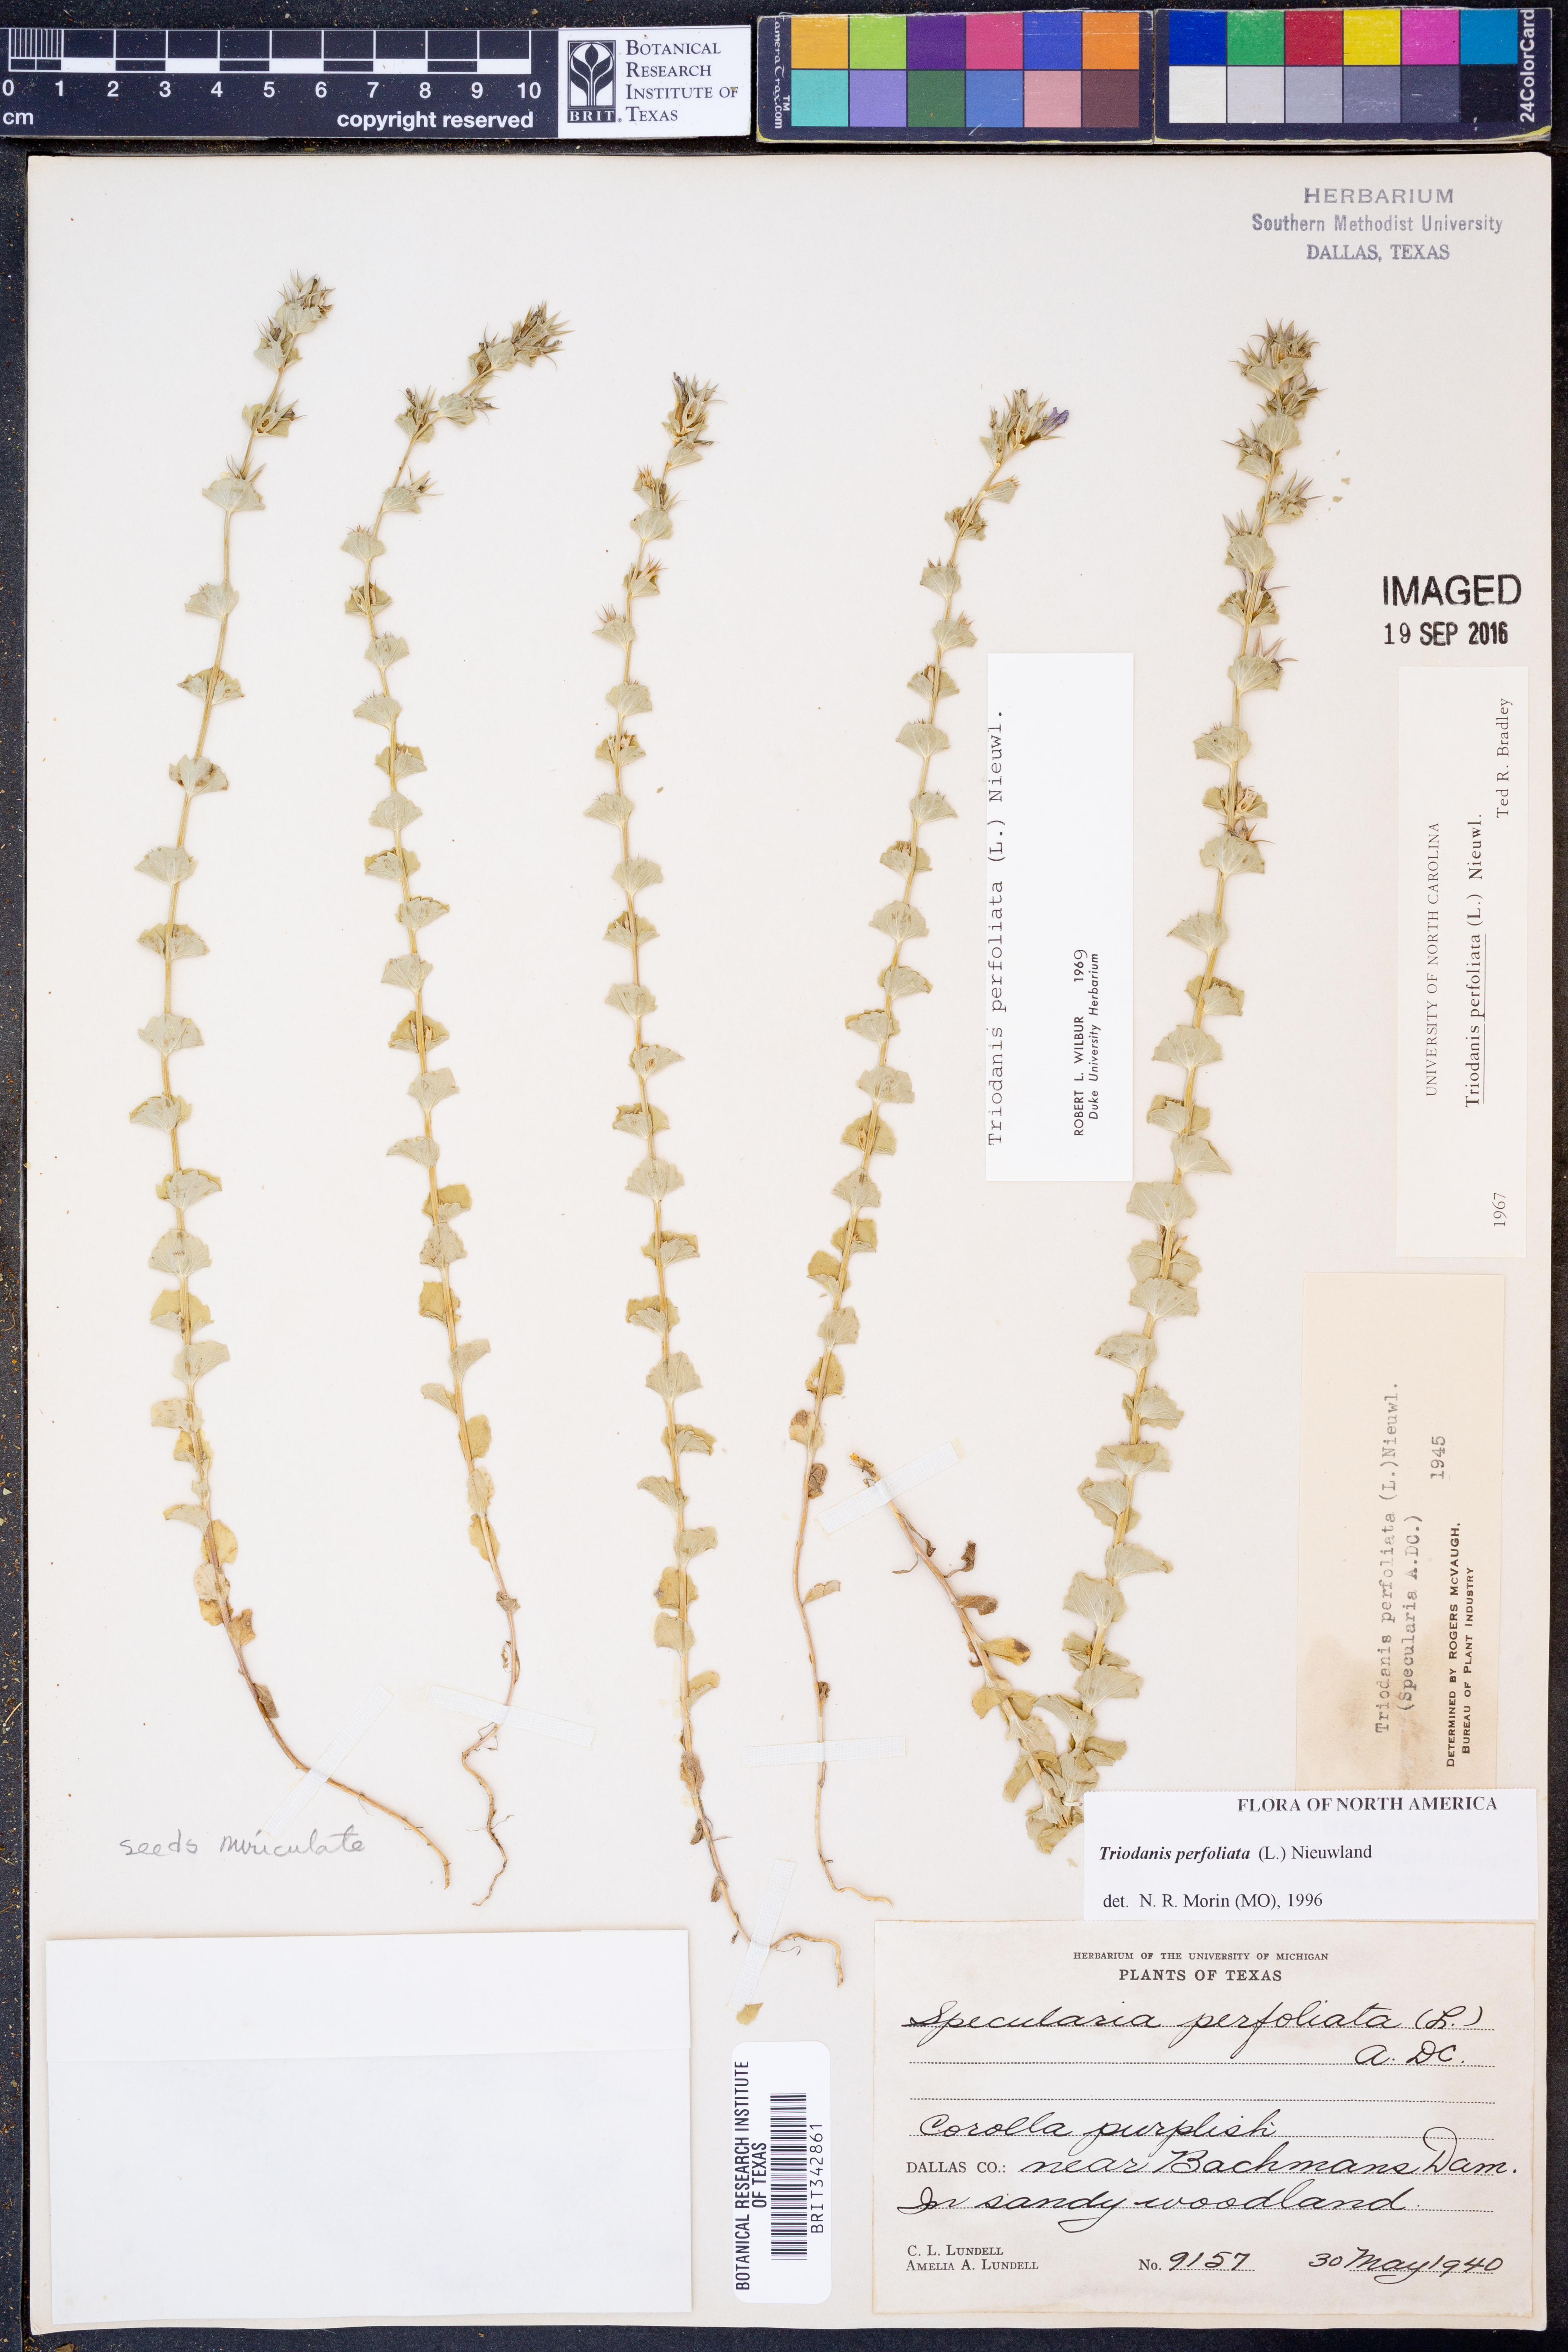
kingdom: Plantae
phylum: Tracheophyta
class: Magnoliopsida
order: Asterales
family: Campanulaceae
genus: Triodanis
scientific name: Triodanis perfoliata
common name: Clasping venus' looking-glass
